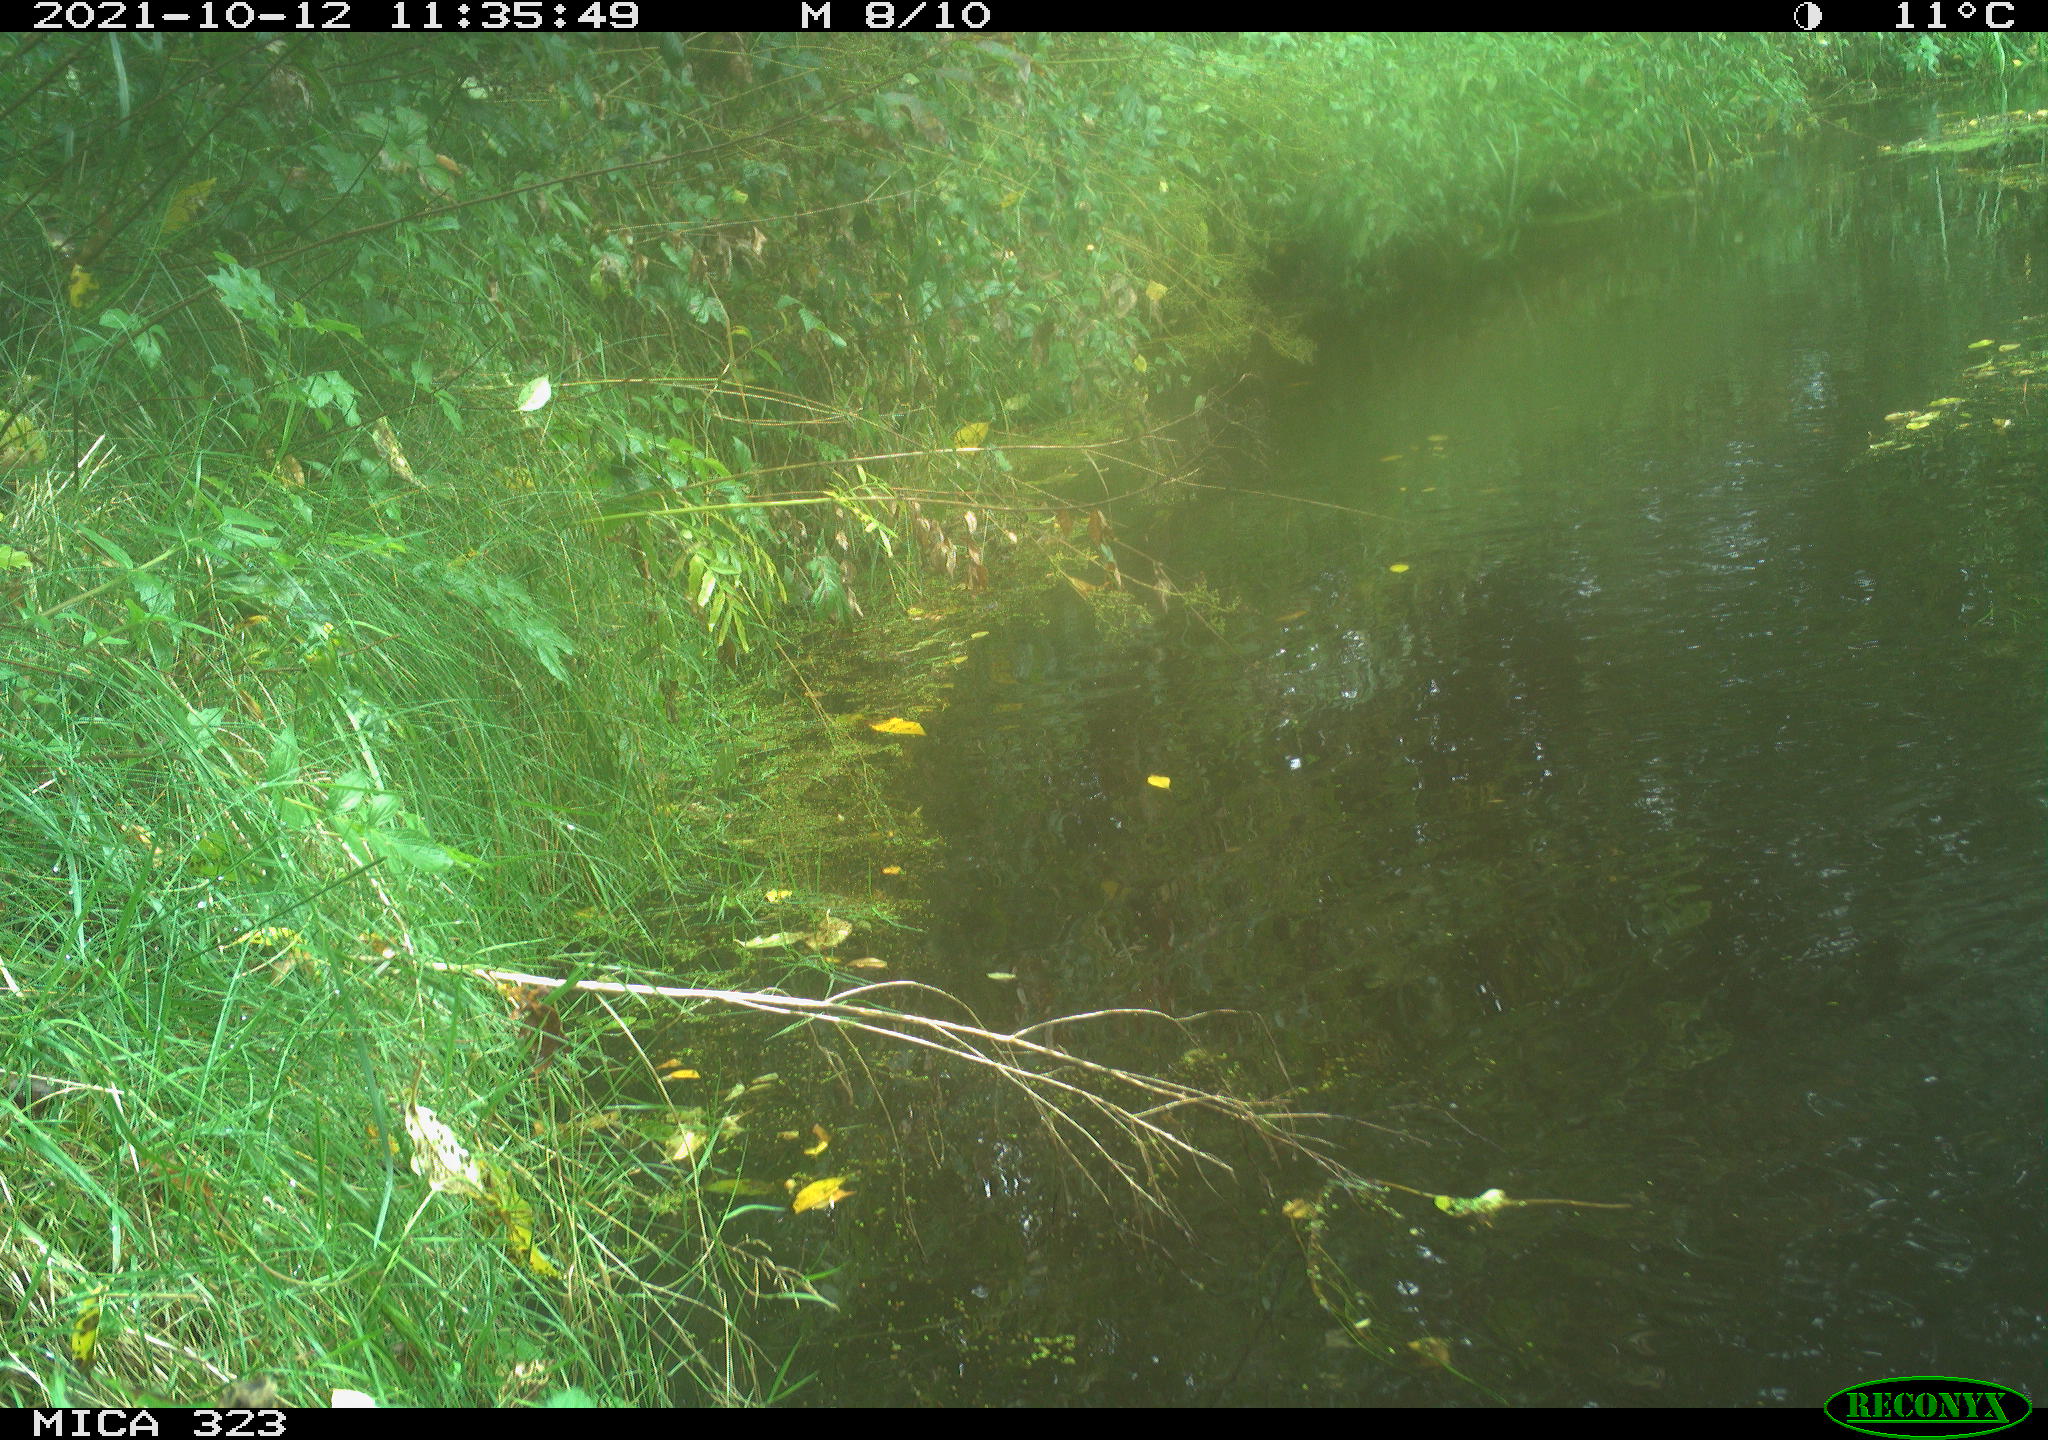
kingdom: Animalia
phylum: Chordata
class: Aves
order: Anseriformes
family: Anatidae
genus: Anas
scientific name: Anas platyrhynchos
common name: Mallard
